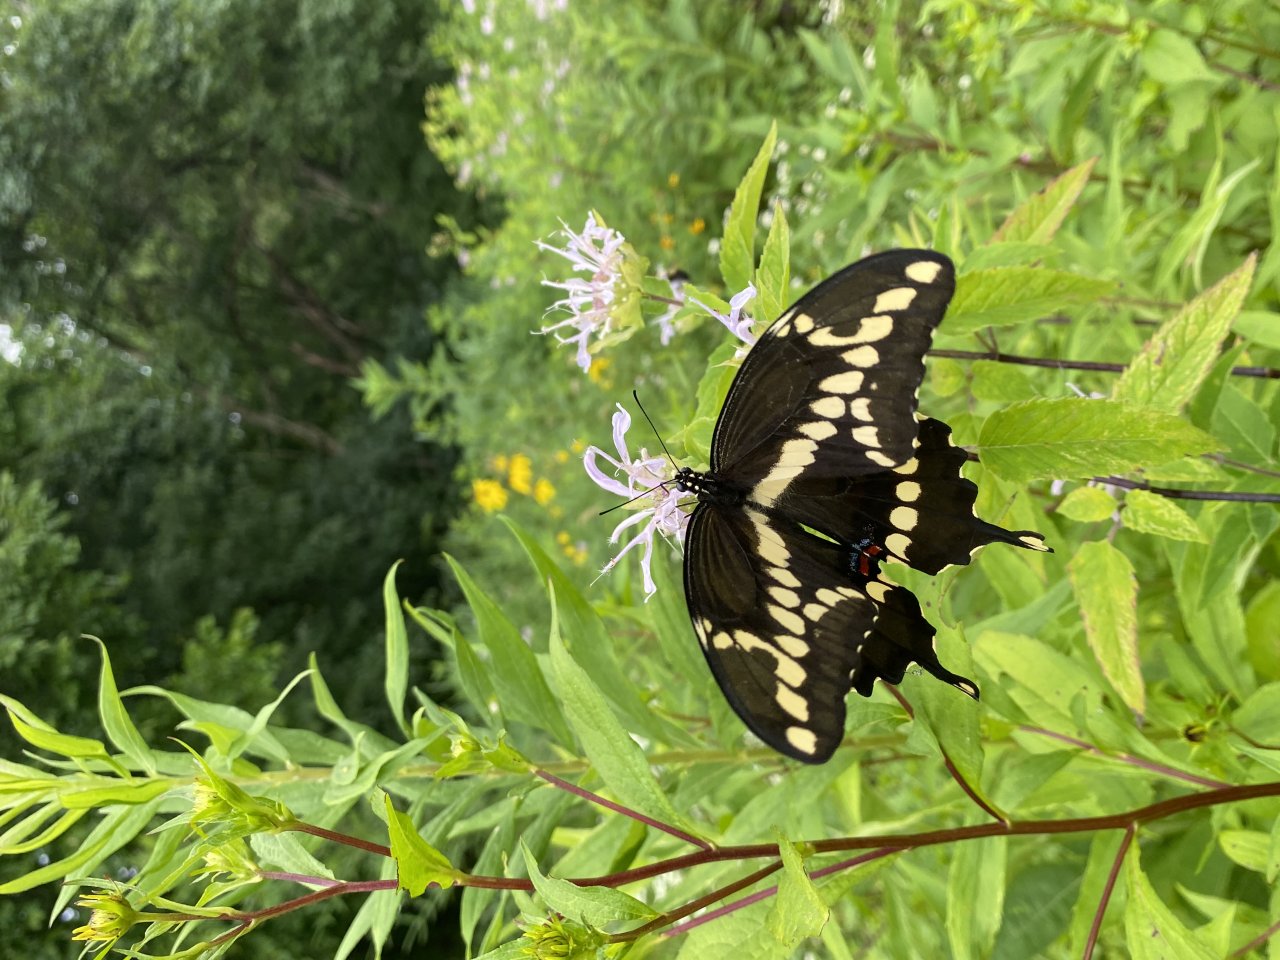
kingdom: Animalia
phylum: Arthropoda
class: Insecta
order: Lepidoptera
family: Papilionidae
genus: Papilio
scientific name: Papilio cresphontes
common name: Eastern Giant Swallowtail
